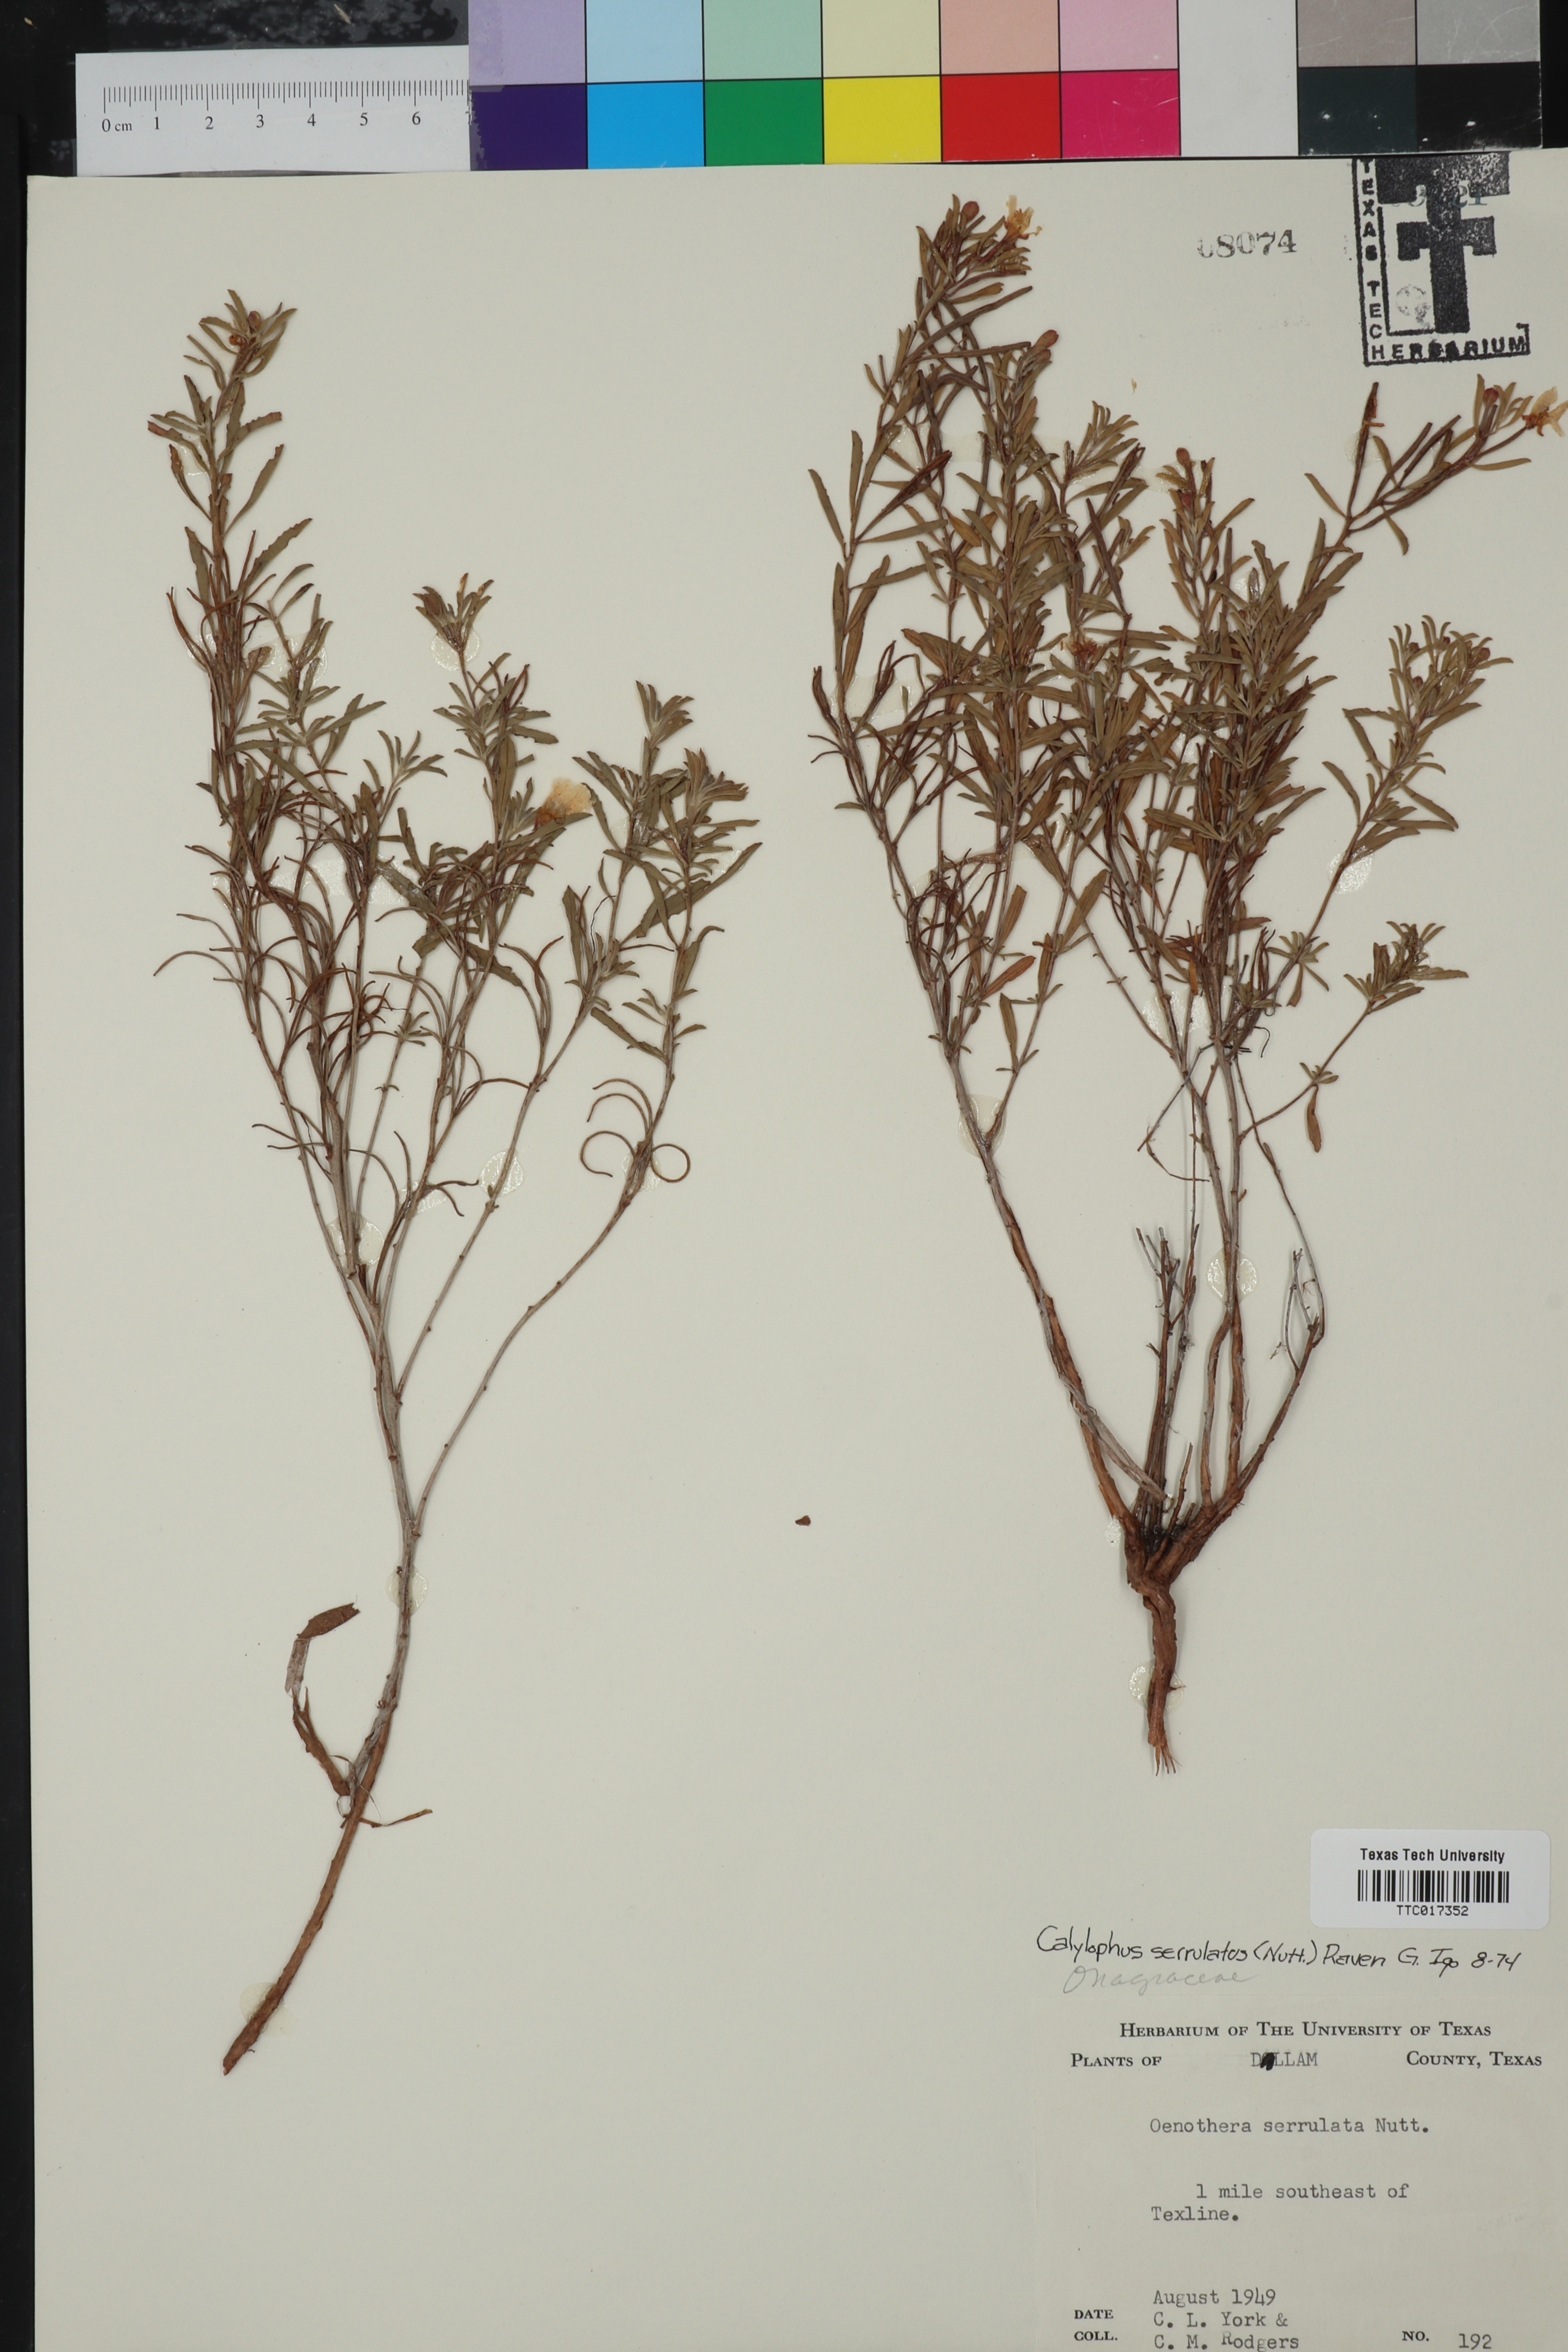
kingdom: Plantae
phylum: Tracheophyta
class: Magnoliopsida
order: Myrtales
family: Onagraceae
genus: Oenothera
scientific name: Oenothera serrulata
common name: Half-shrub calylophus
